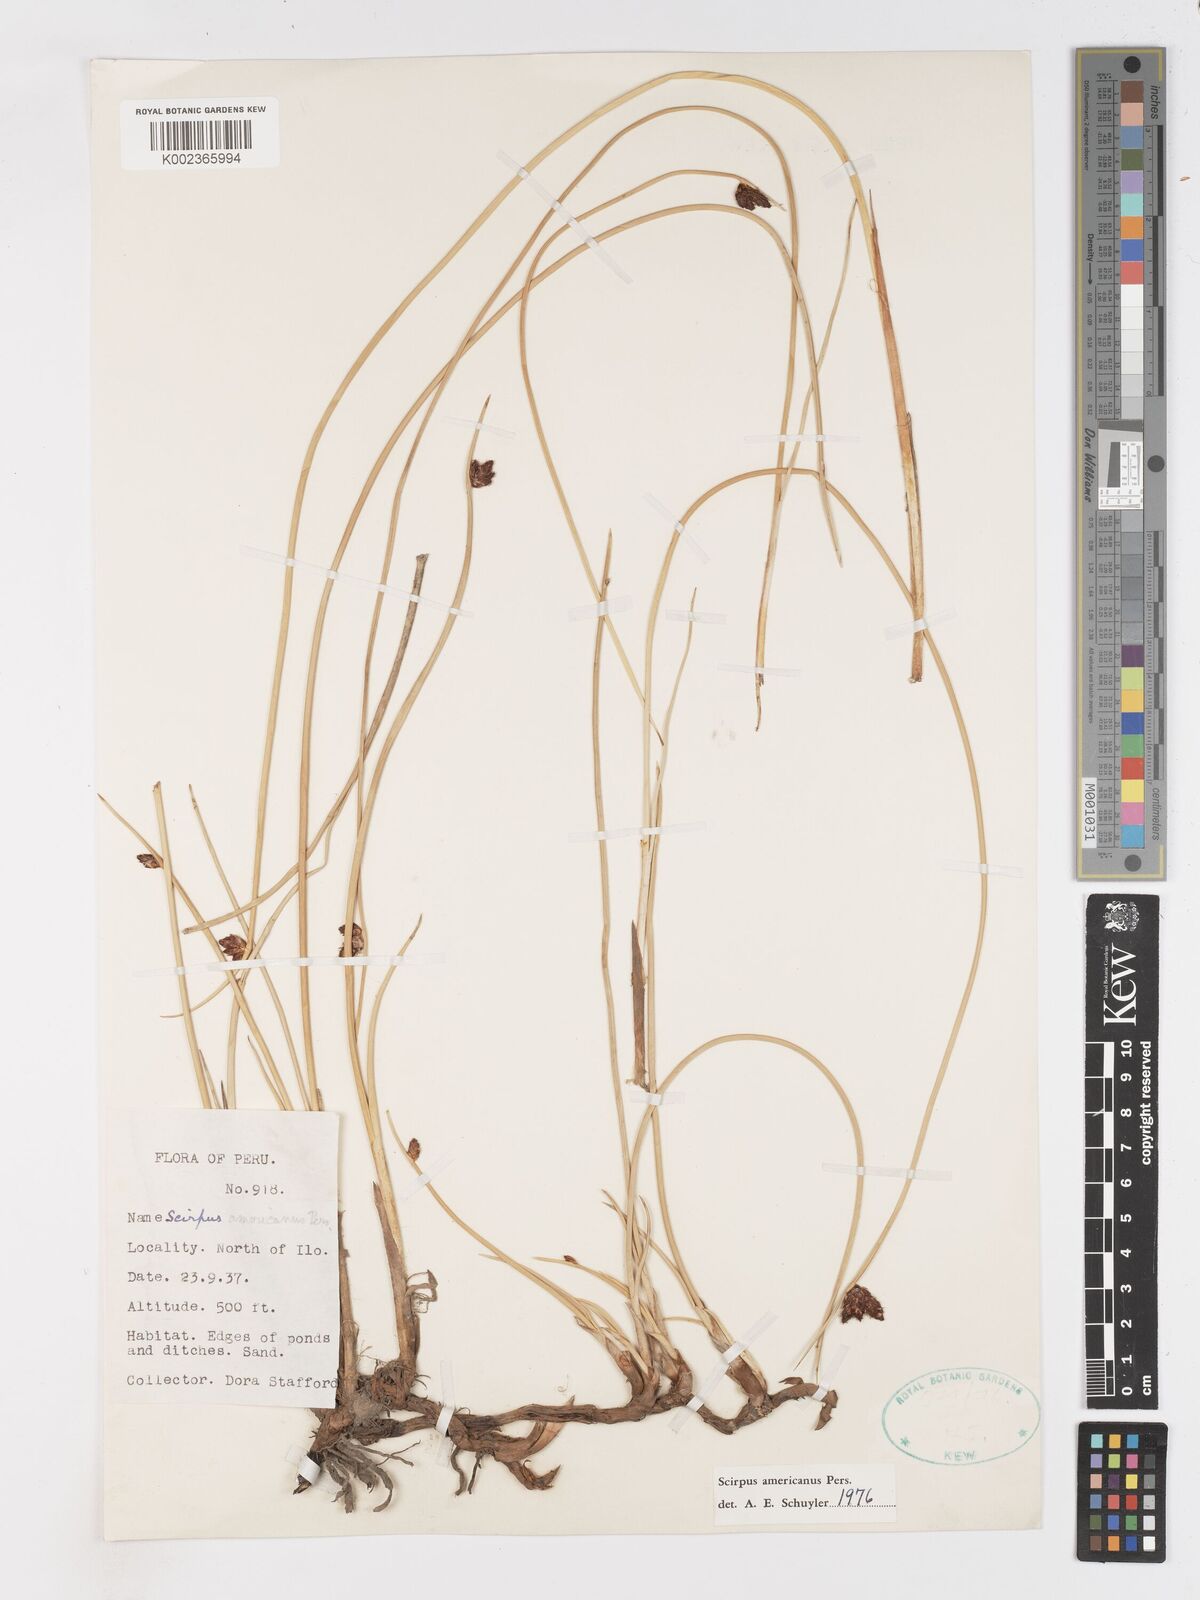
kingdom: Plantae
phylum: Tracheophyta
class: Liliopsida
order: Poales
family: Cyperaceae
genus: Schoenoplectus
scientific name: Schoenoplectus americanus
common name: American three-square bulrush
